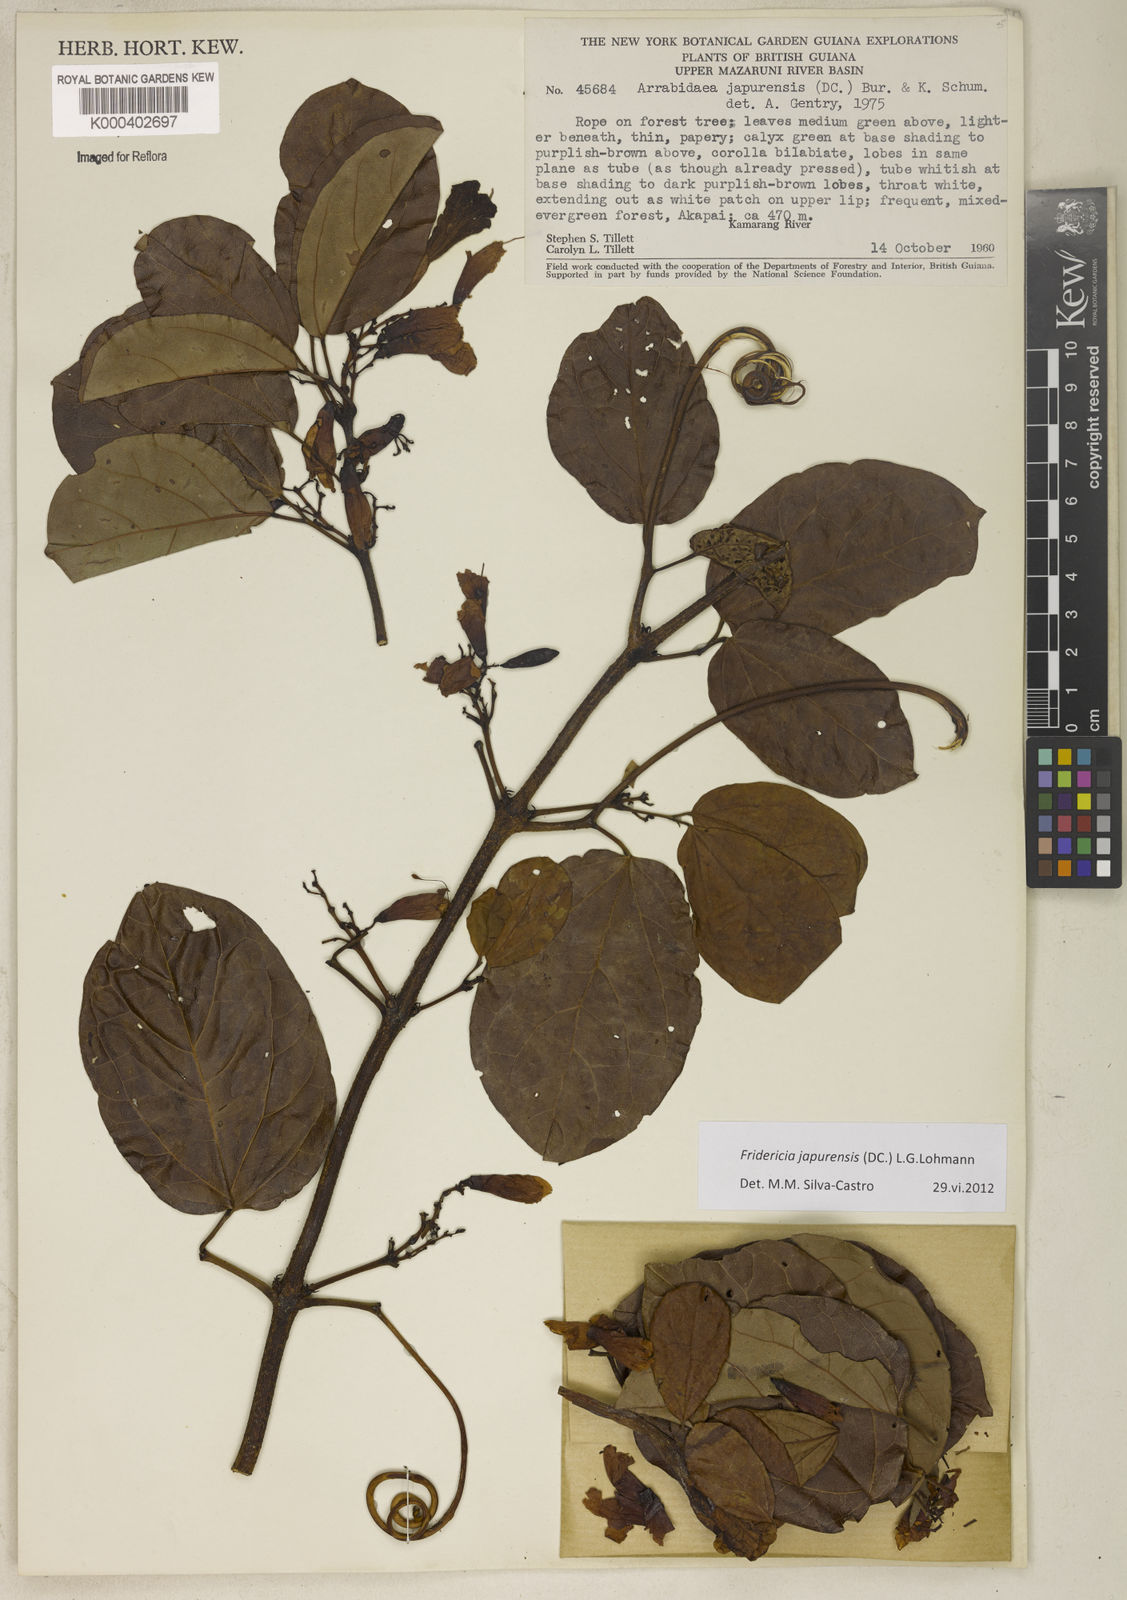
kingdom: Plantae
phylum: Tracheophyta
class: Magnoliopsida
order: Lamiales
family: Bignoniaceae
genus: Fridericia
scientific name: Fridericia japurensis
